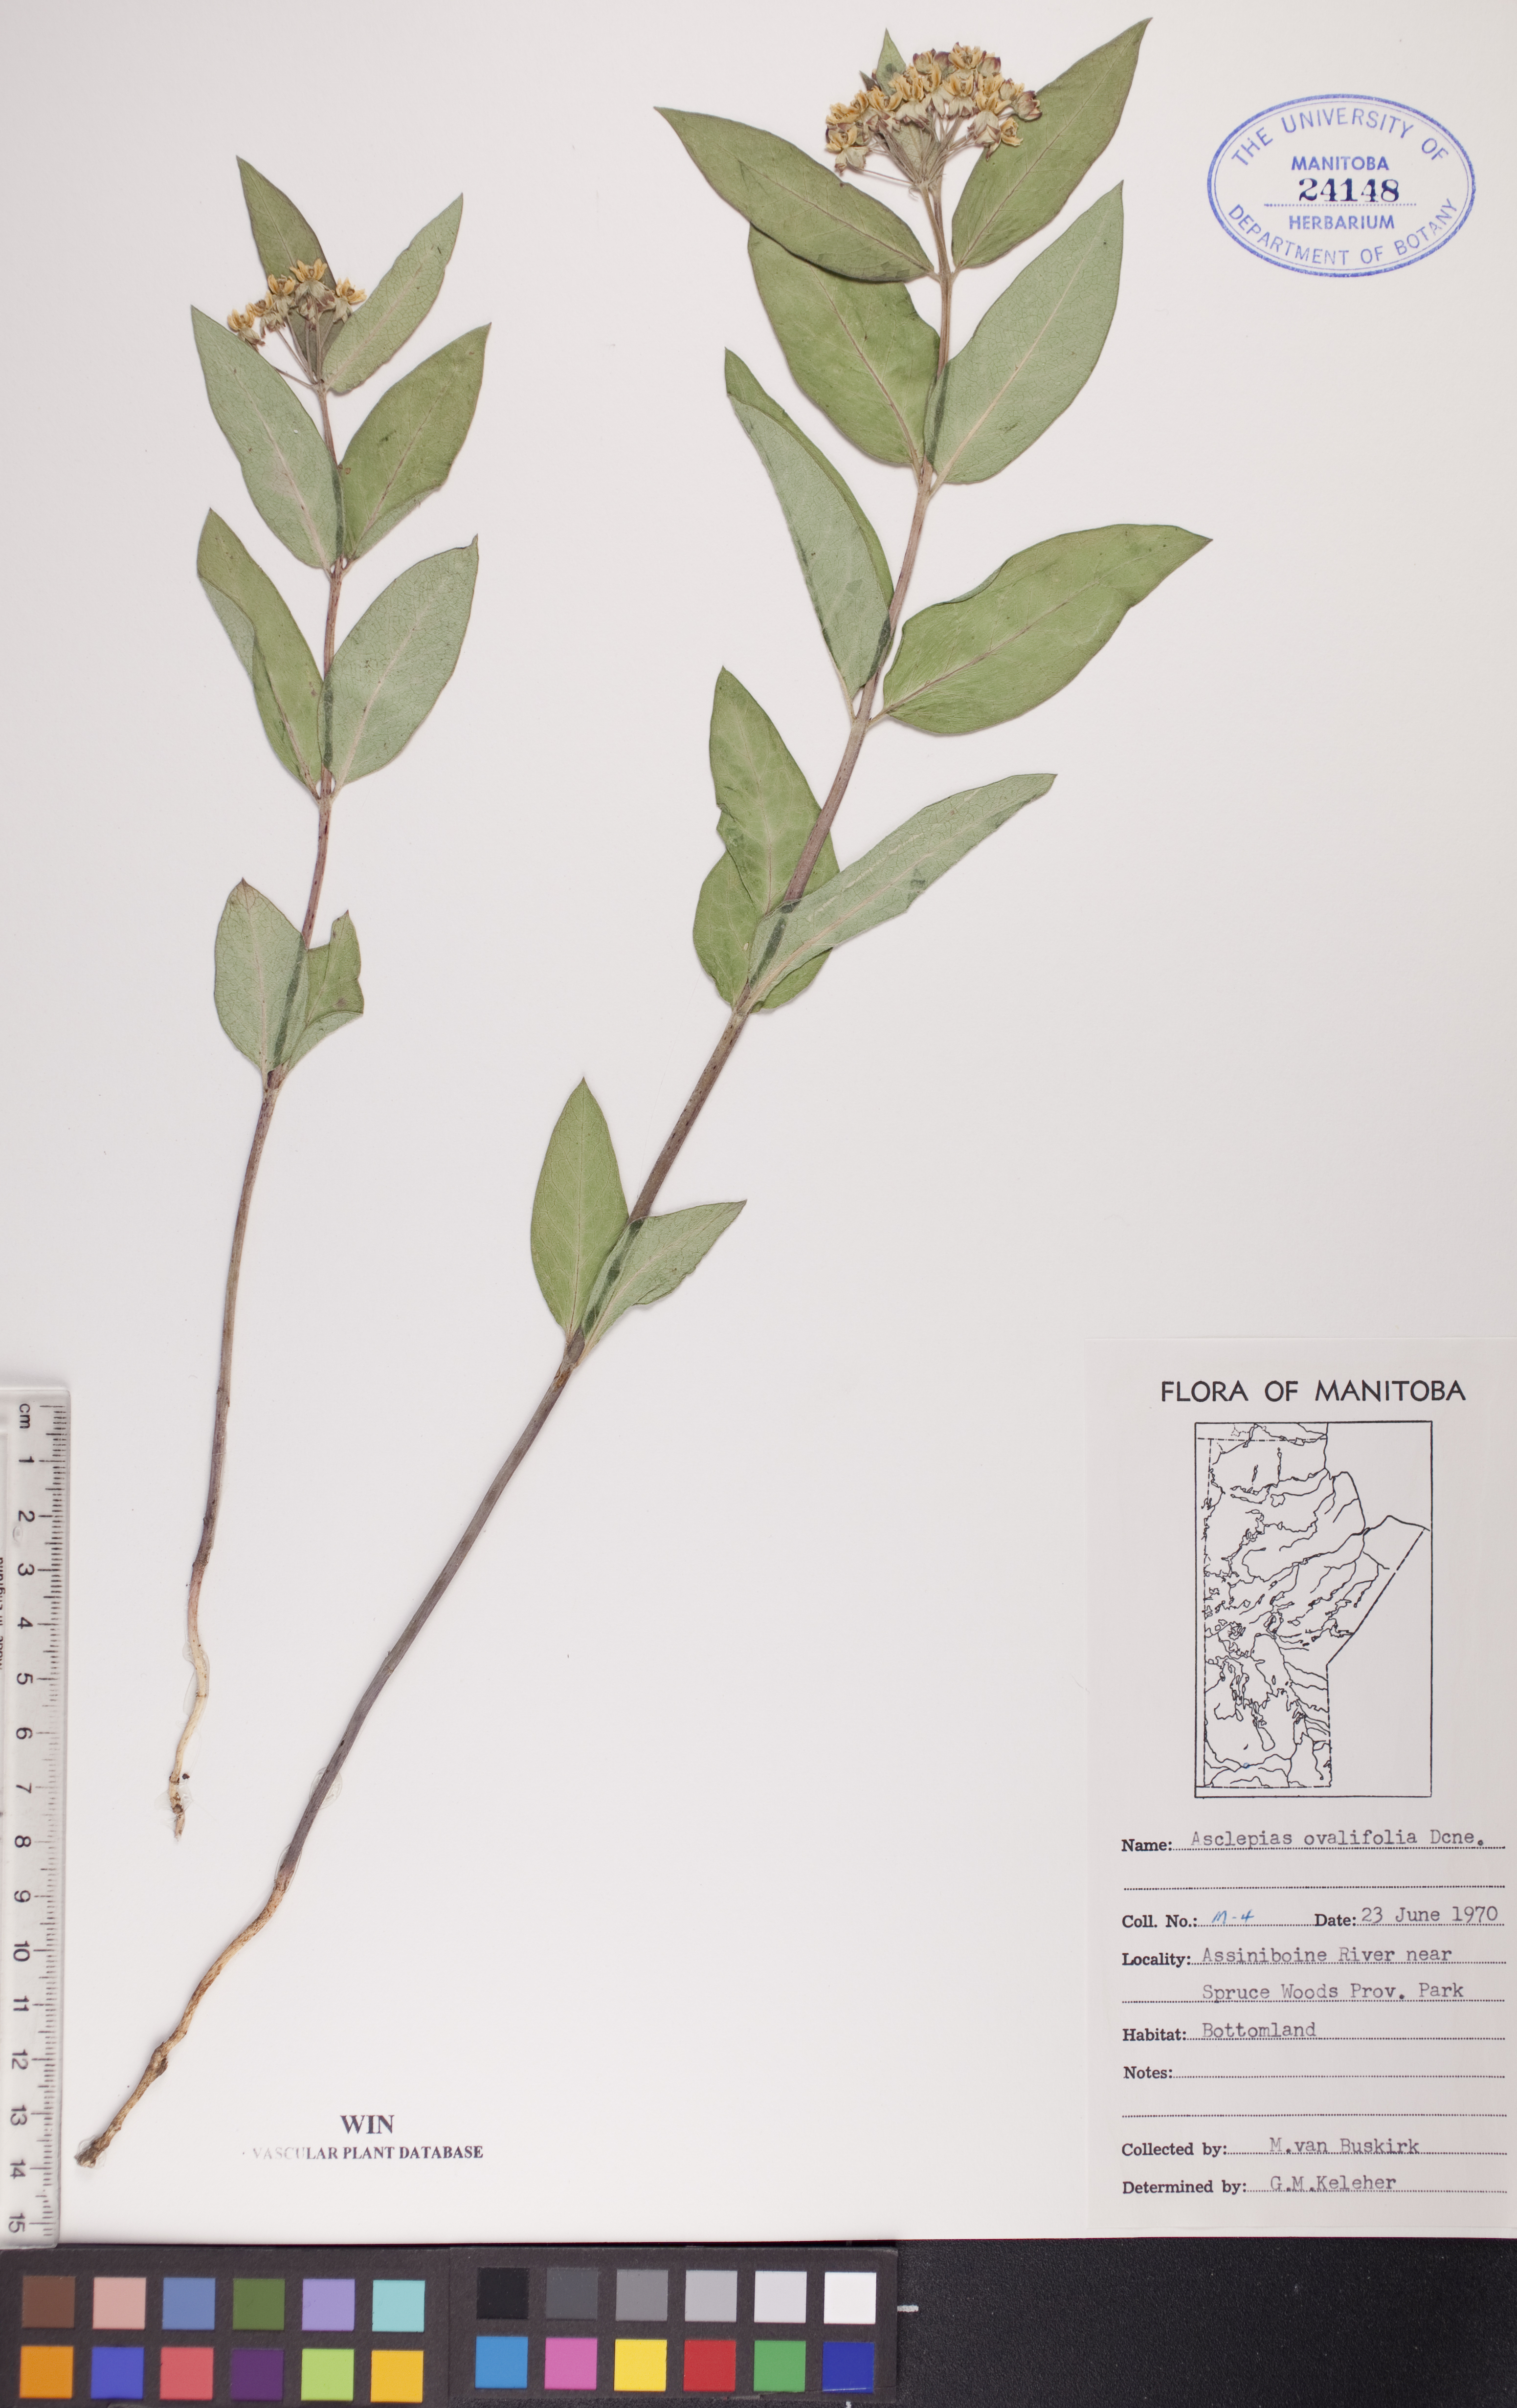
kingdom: Plantae
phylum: Tracheophyta
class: Magnoliopsida
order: Gentianales
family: Apocynaceae
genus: Asclepias
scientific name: Asclepias ovalifolia
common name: Dwarf milkweed
